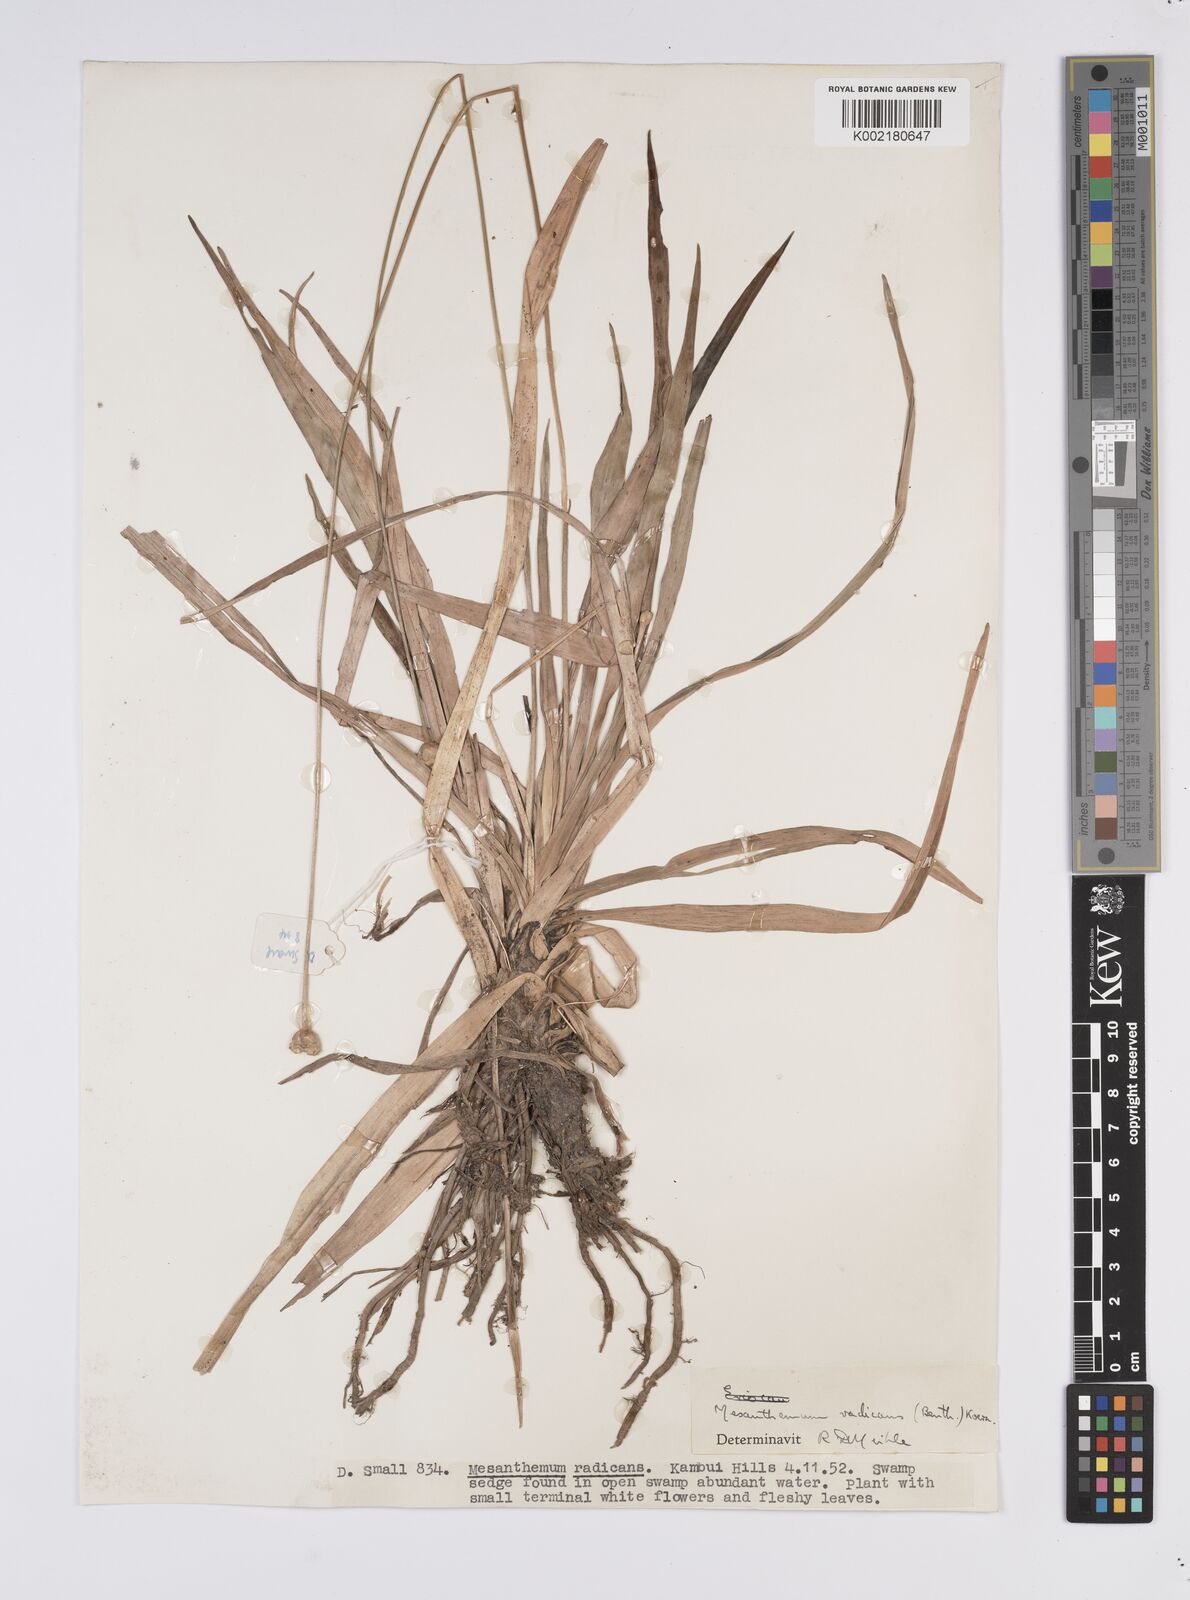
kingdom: Plantae
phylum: Tracheophyta
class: Liliopsida
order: Poales
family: Eriocaulaceae
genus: Mesanthemum
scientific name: Mesanthemum radicans
